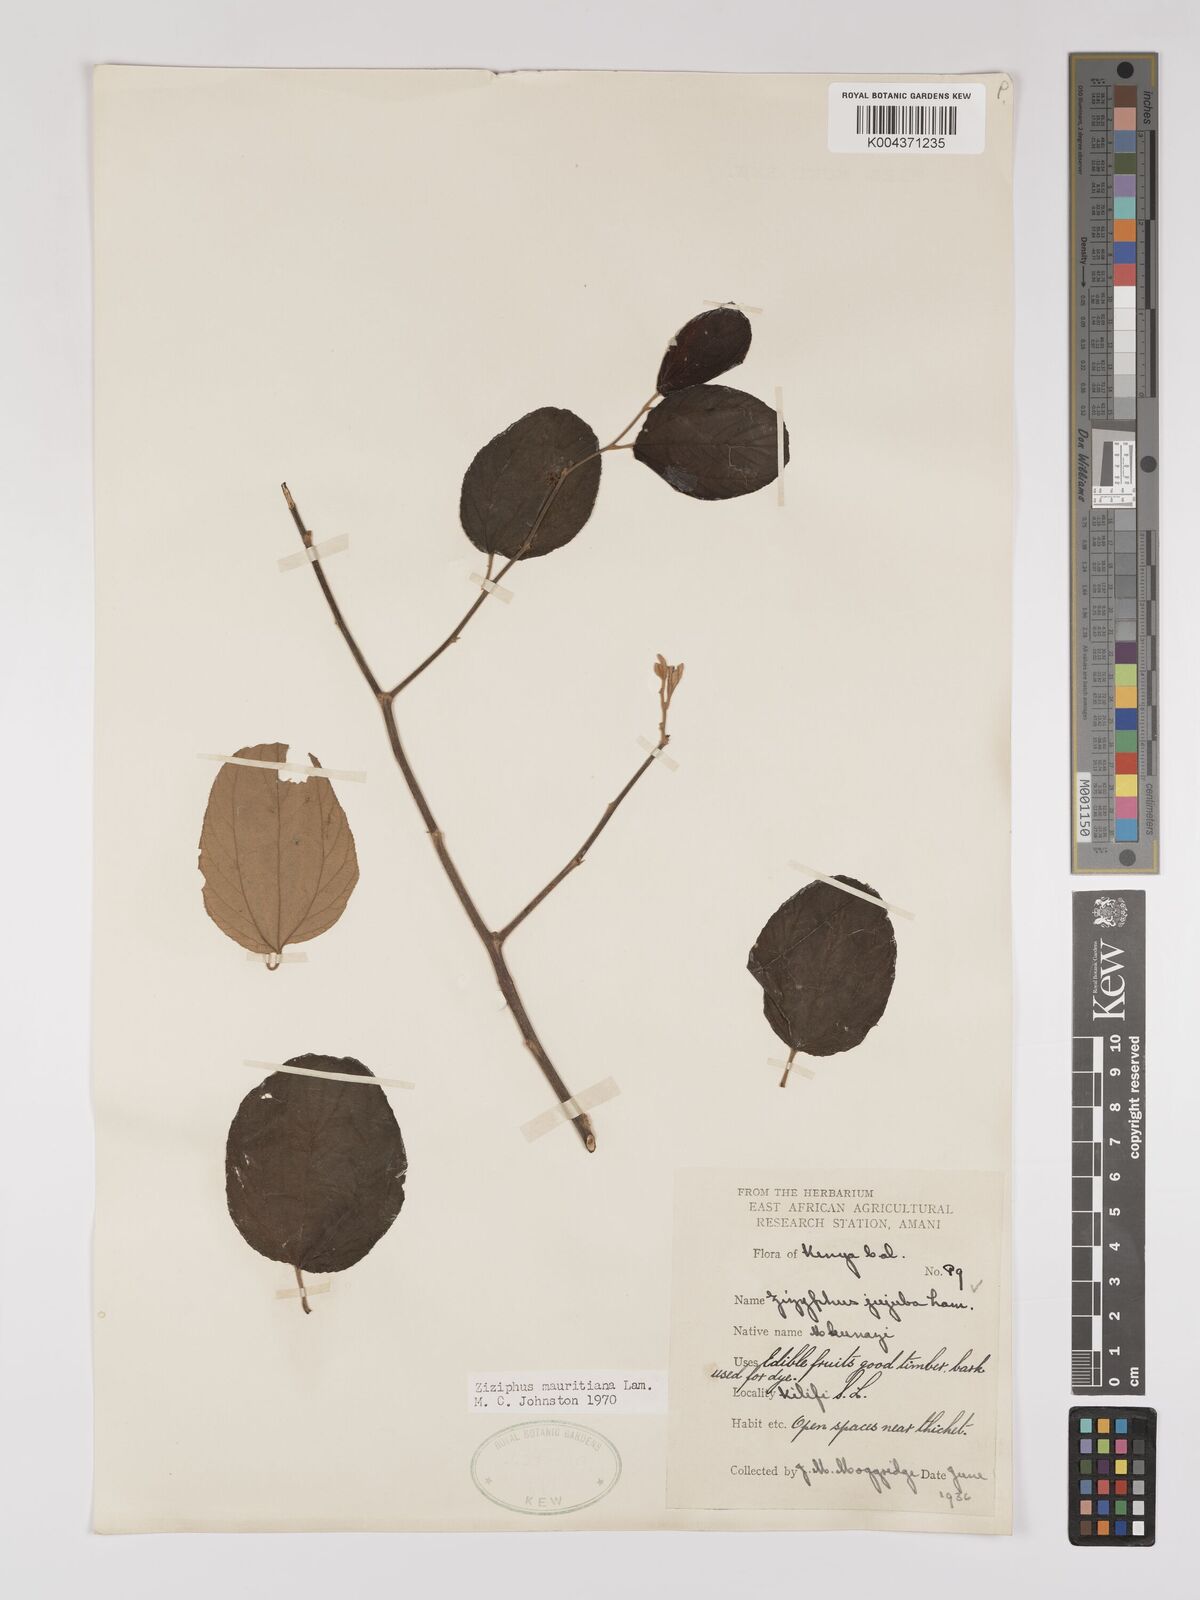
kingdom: Plantae
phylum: Tracheophyta
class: Magnoliopsida
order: Rosales
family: Rhamnaceae
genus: Ziziphus
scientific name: Ziziphus mauritiana
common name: Indian jujube
